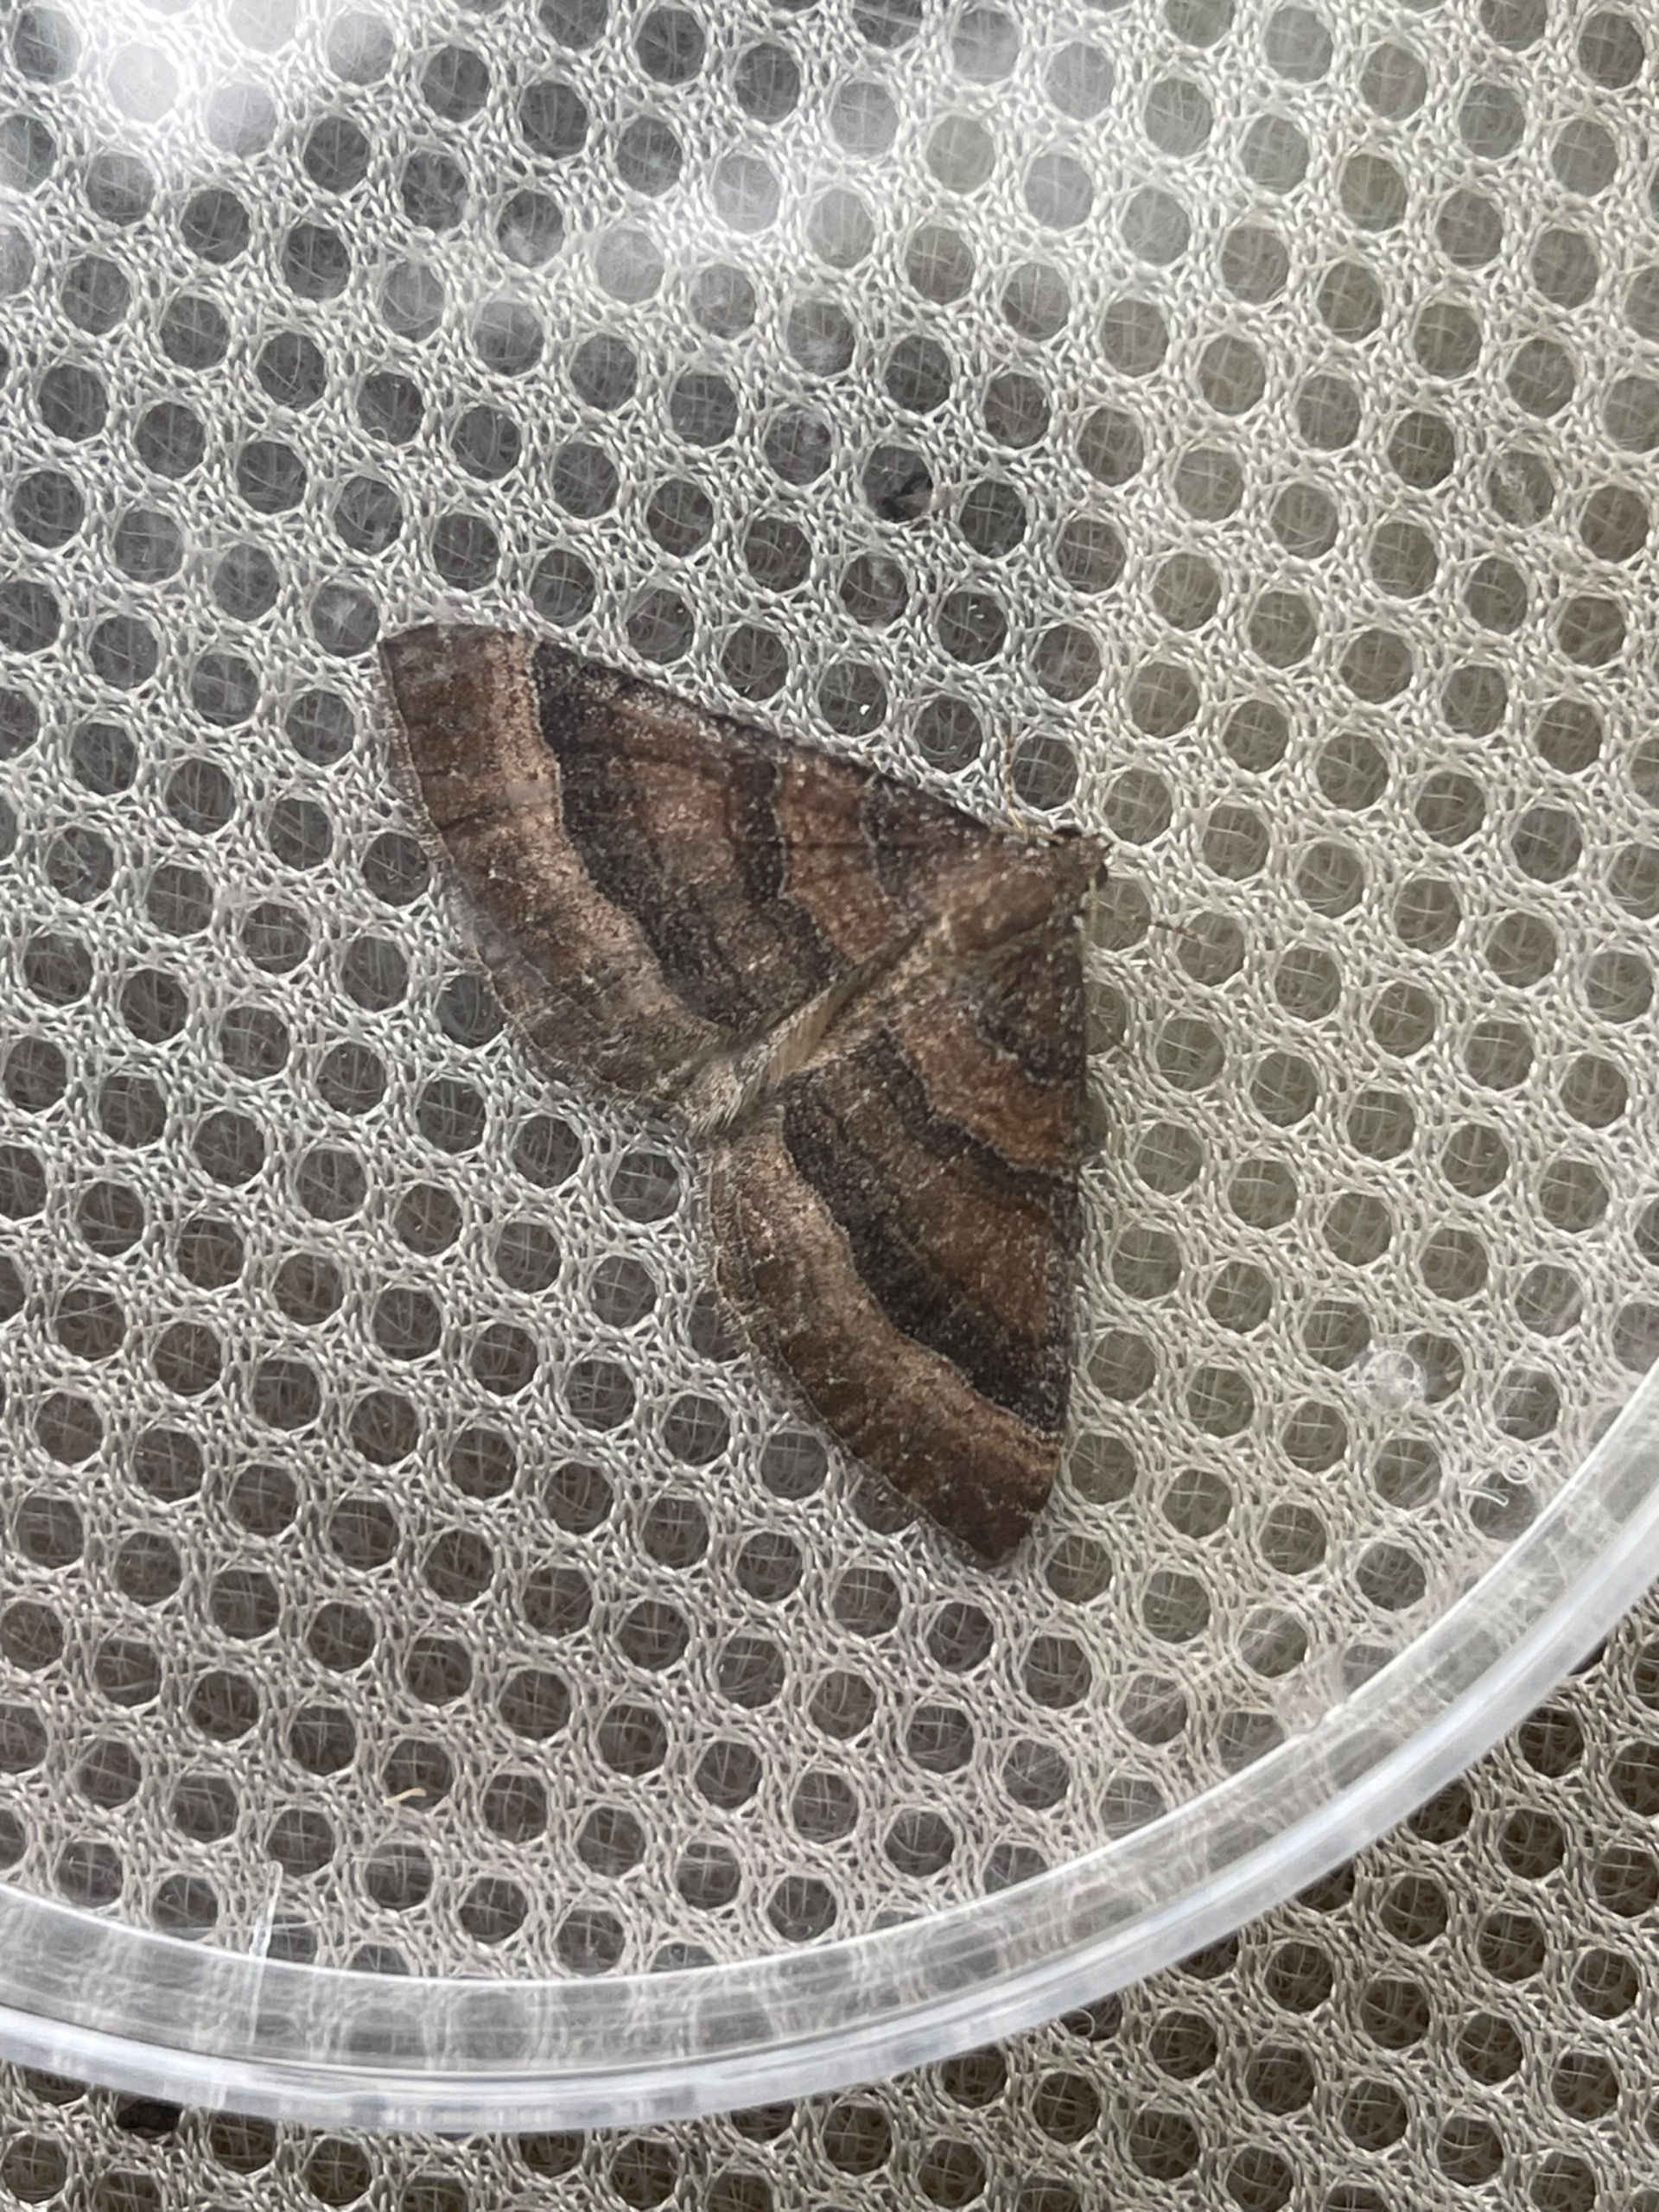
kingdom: Animalia
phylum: Arthropoda
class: Insecta
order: Lepidoptera
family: Geometridae
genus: Larentia
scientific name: Larentia clavaria
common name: Katostmåler
